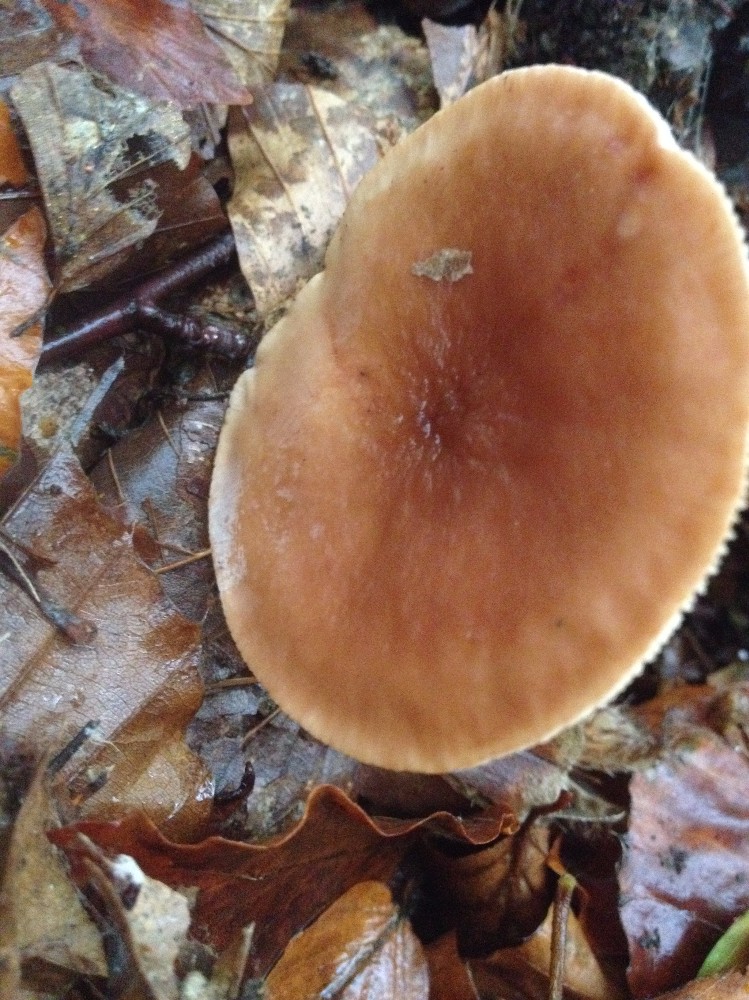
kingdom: Fungi
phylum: Basidiomycota
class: Agaricomycetes
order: Russulales
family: Russulaceae
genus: Lactarius
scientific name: Lactarius subdulcis
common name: sødlig mælkehat
